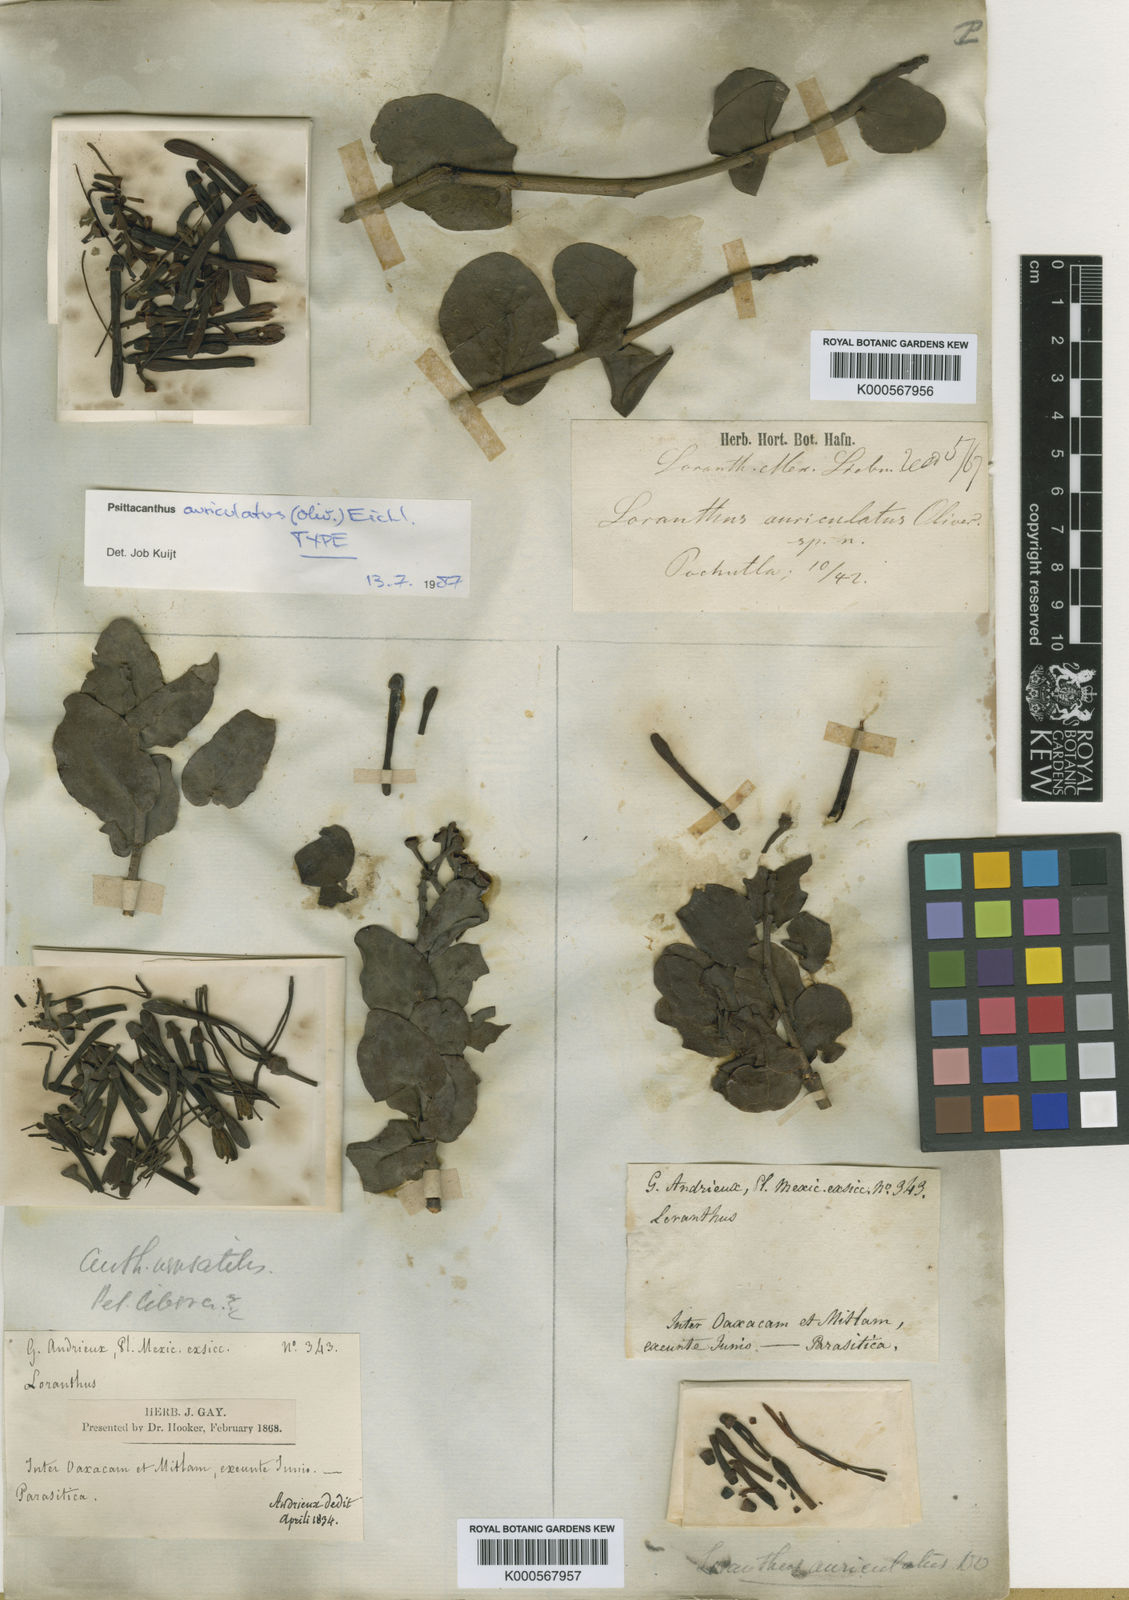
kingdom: Plantae
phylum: Tracheophyta
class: Magnoliopsida
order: Santalales
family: Loranthaceae
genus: Psittacanthus
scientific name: Psittacanthus auriculatus
